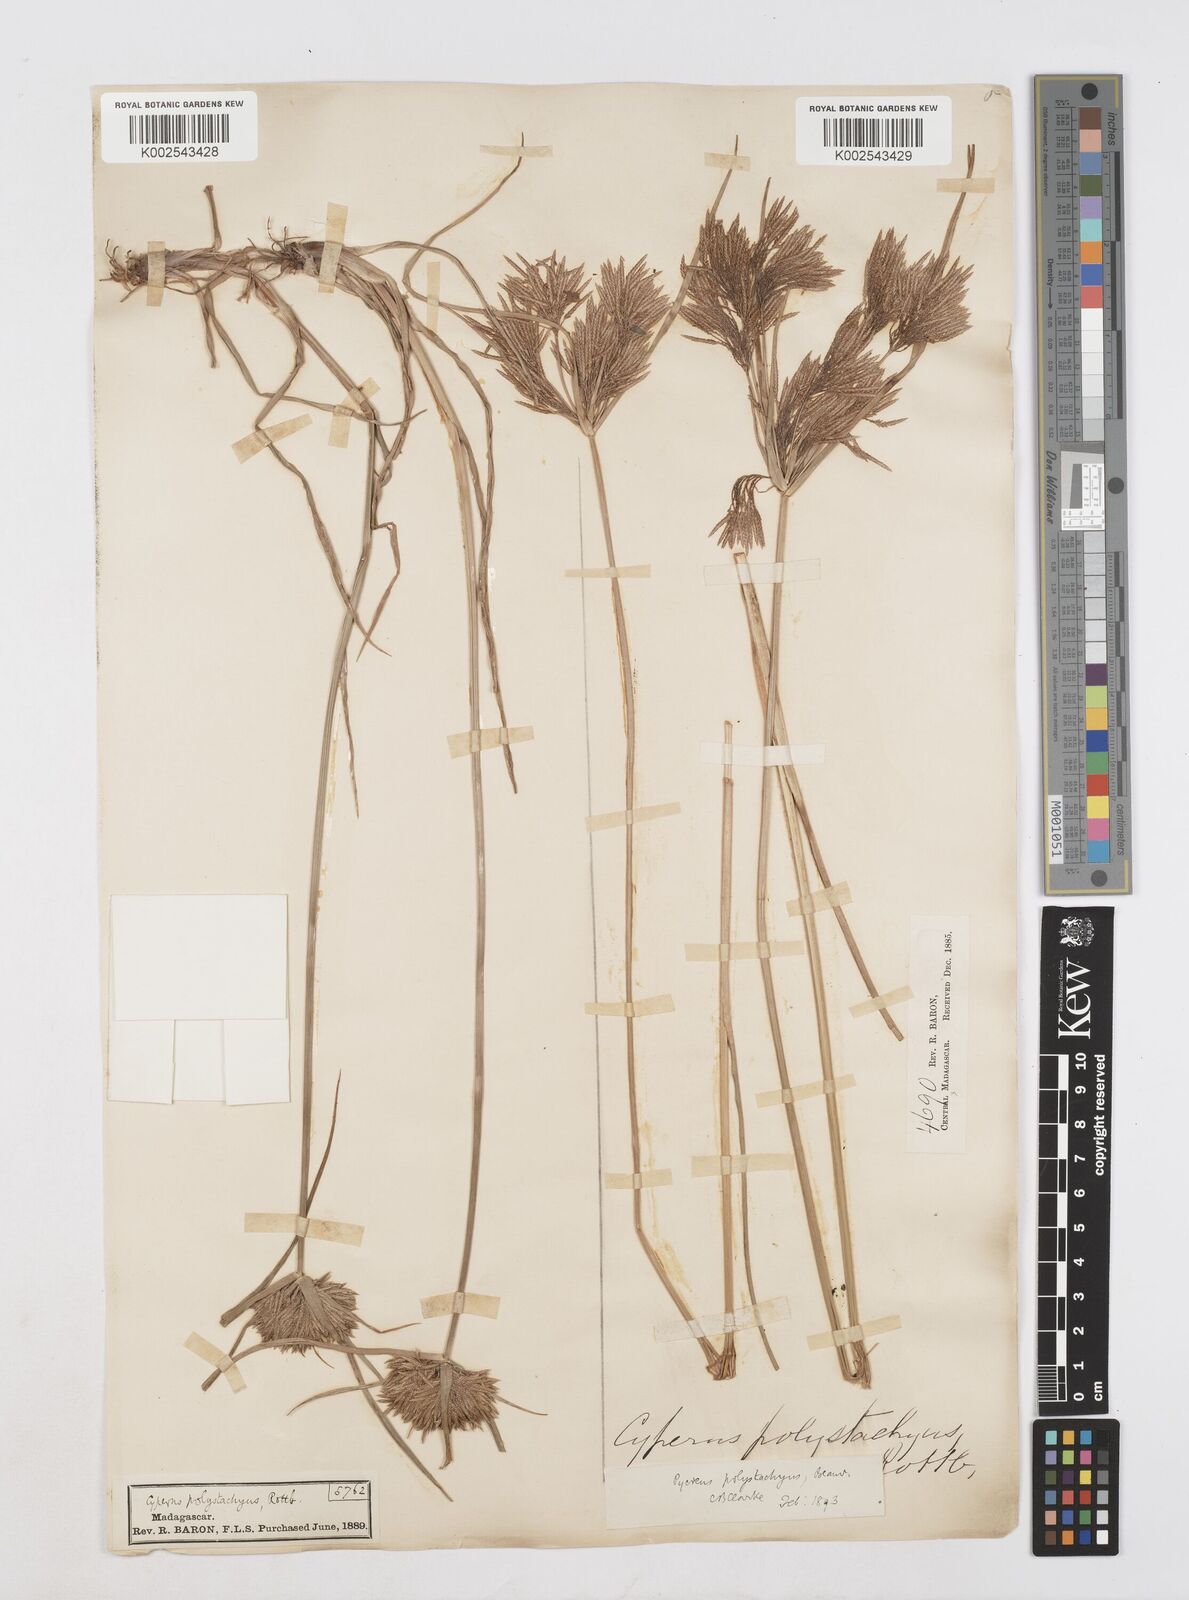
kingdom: Plantae
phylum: Tracheophyta
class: Liliopsida
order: Poales
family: Cyperaceae
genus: Cyperus
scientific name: Cyperus polystachyos
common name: Bunchy flat sedge
